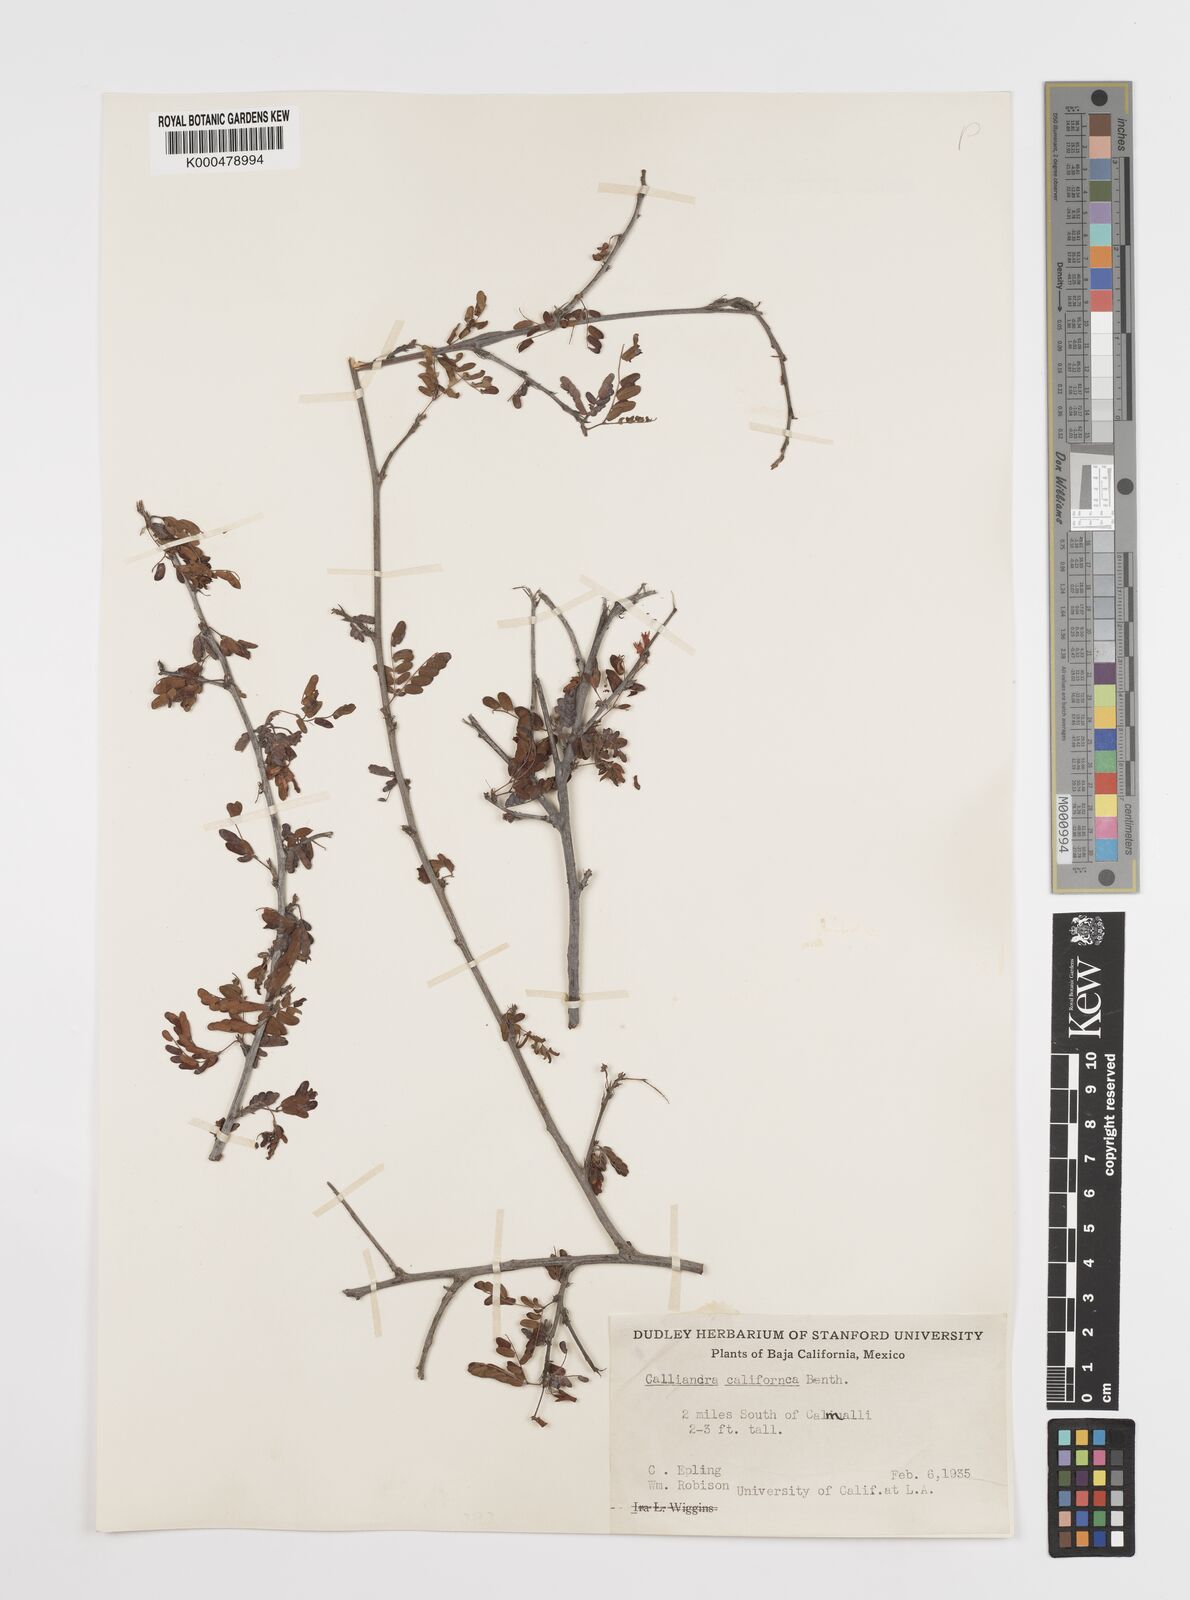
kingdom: Plantae
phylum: Tracheophyta
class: Magnoliopsida
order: Fabales
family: Fabaceae
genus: Calliandra
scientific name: Calliandra californica
